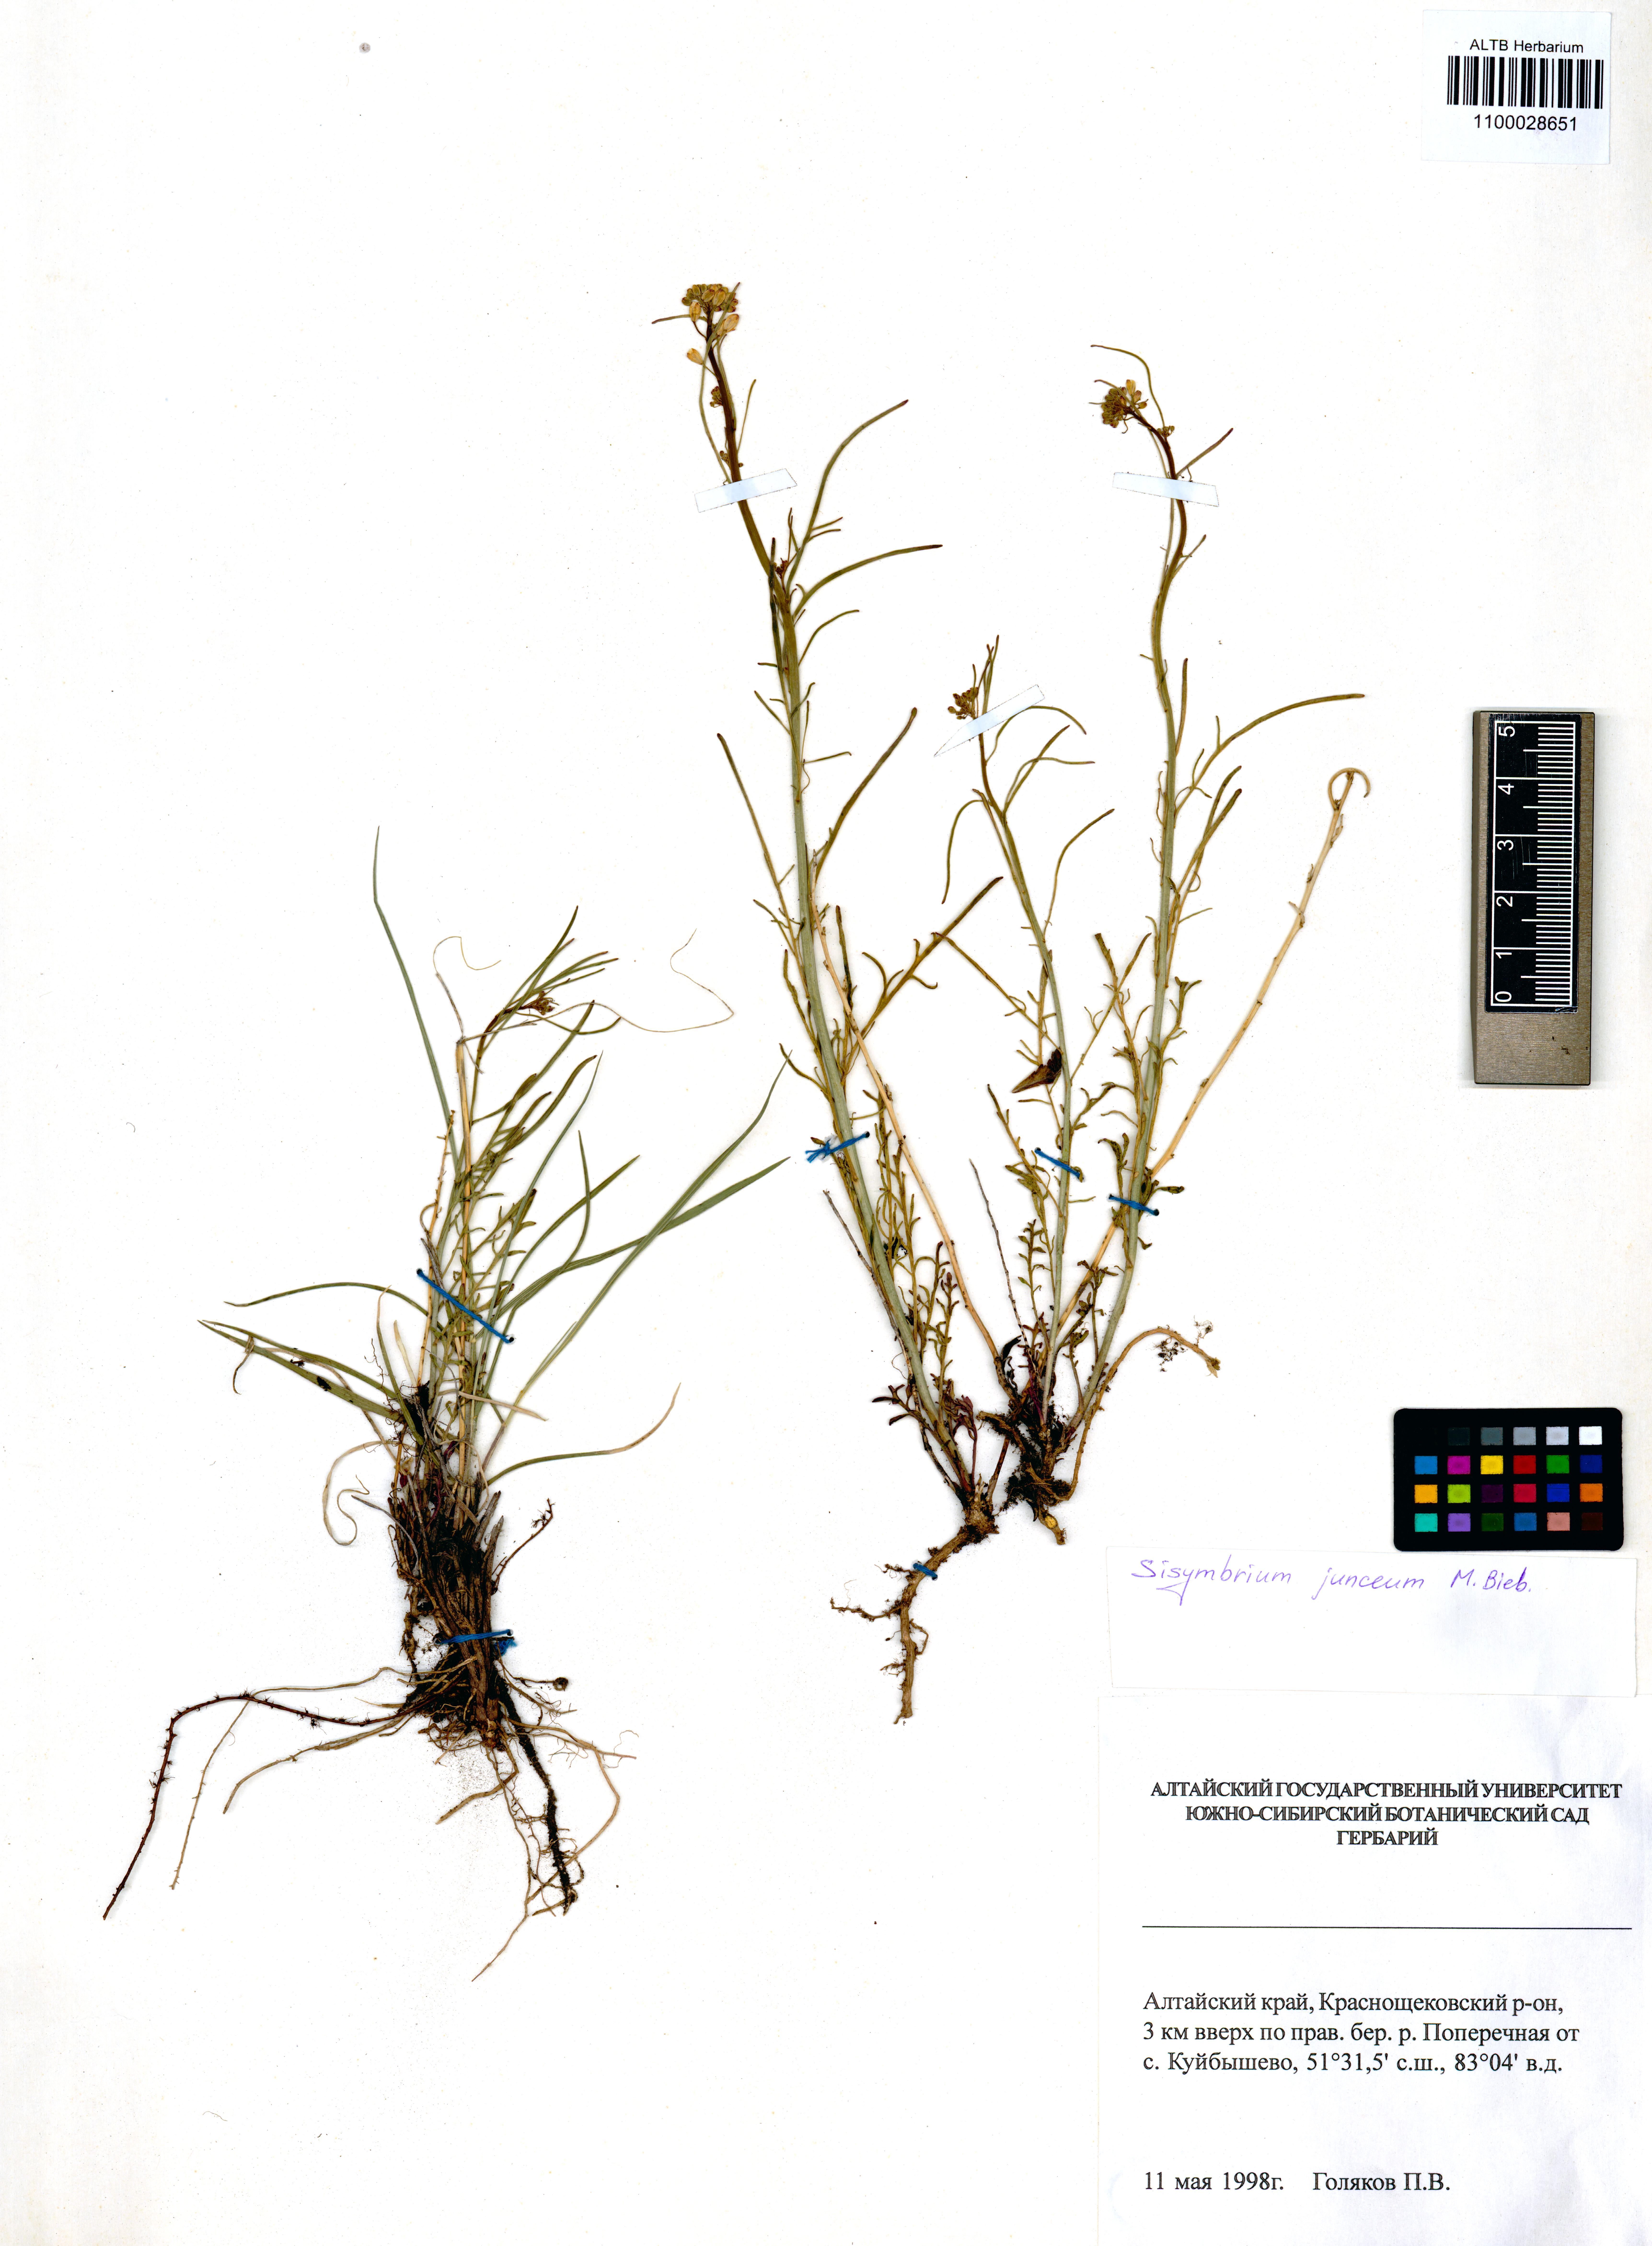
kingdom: Plantae
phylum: Tracheophyta
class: Magnoliopsida
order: Brassicales
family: Brassicaceae
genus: Sisymbrium
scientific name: Sisymbrium polymorphum
